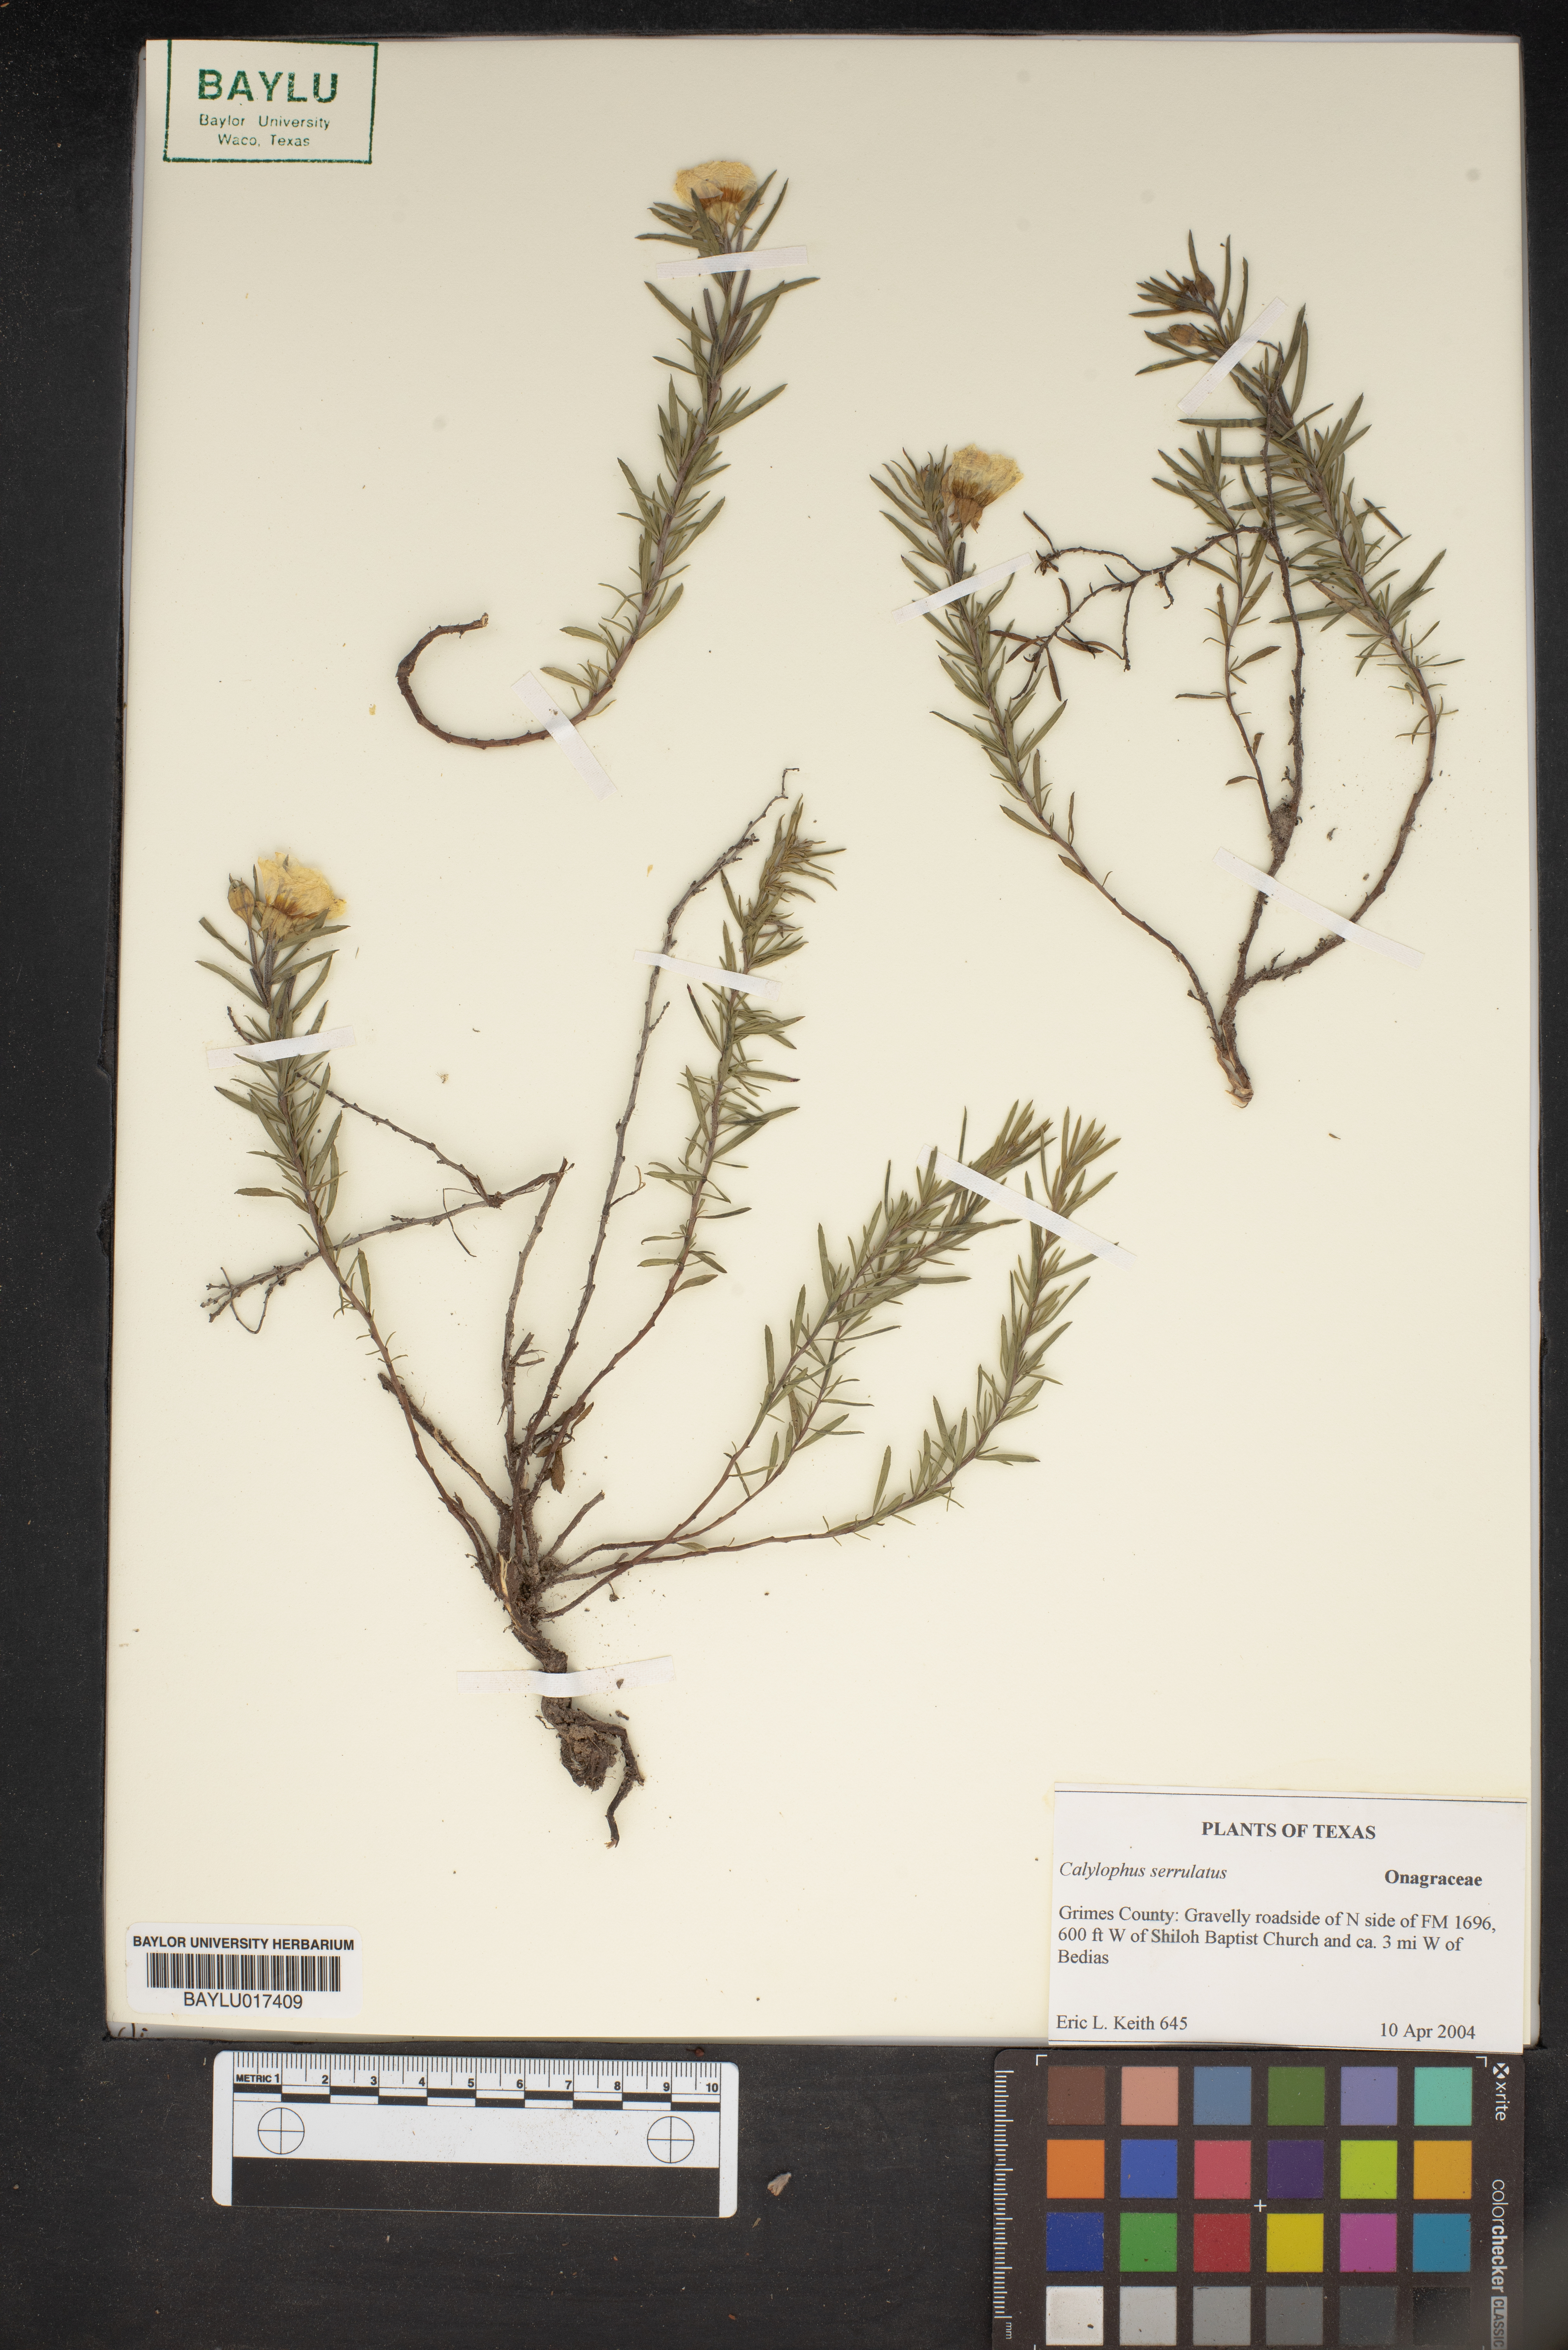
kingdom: Plantae
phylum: Tracheophyta
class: Magnoliopsida
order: Myrtales
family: Onagraceae
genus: Oenothera
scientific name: Oenothera serrulata
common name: Half-shrub calylophus
